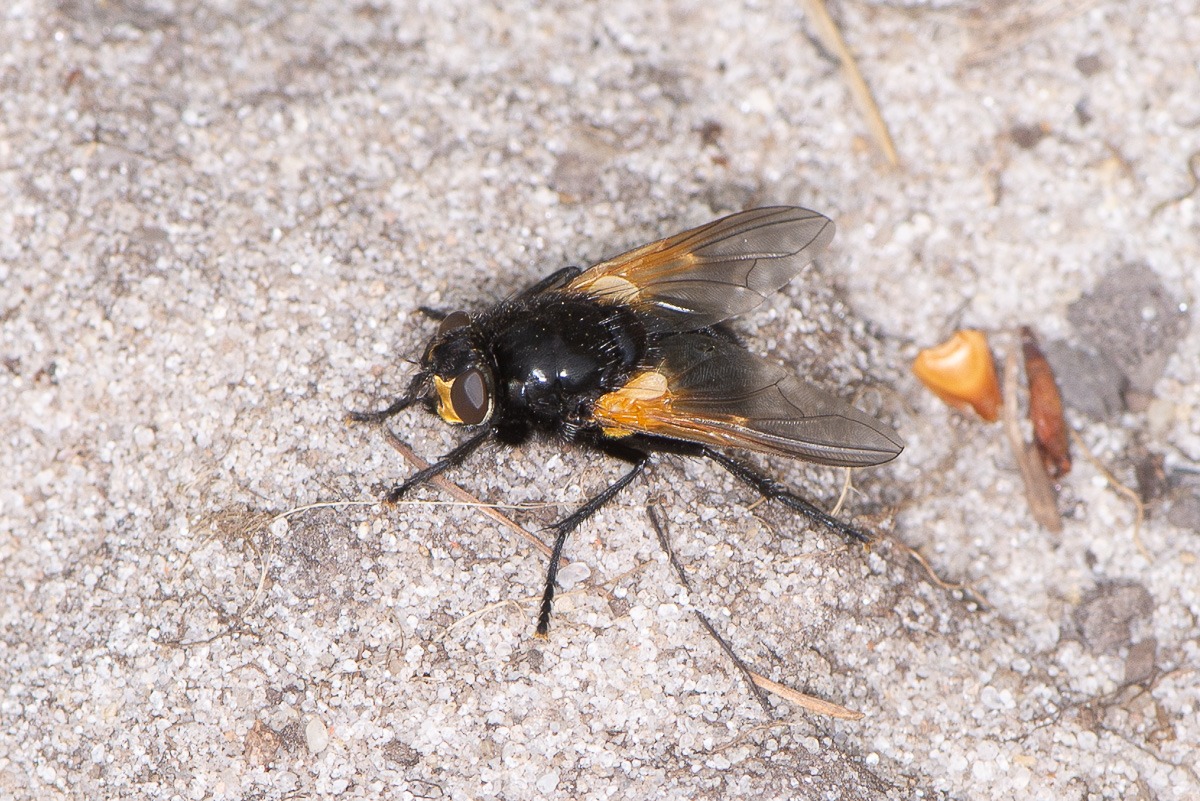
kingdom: Animalia
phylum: Arthropoda
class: Insecta
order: Diptera
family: Muscidae
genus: Mesembrina
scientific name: Mesembrina meridiana
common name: Gulvinget flue
